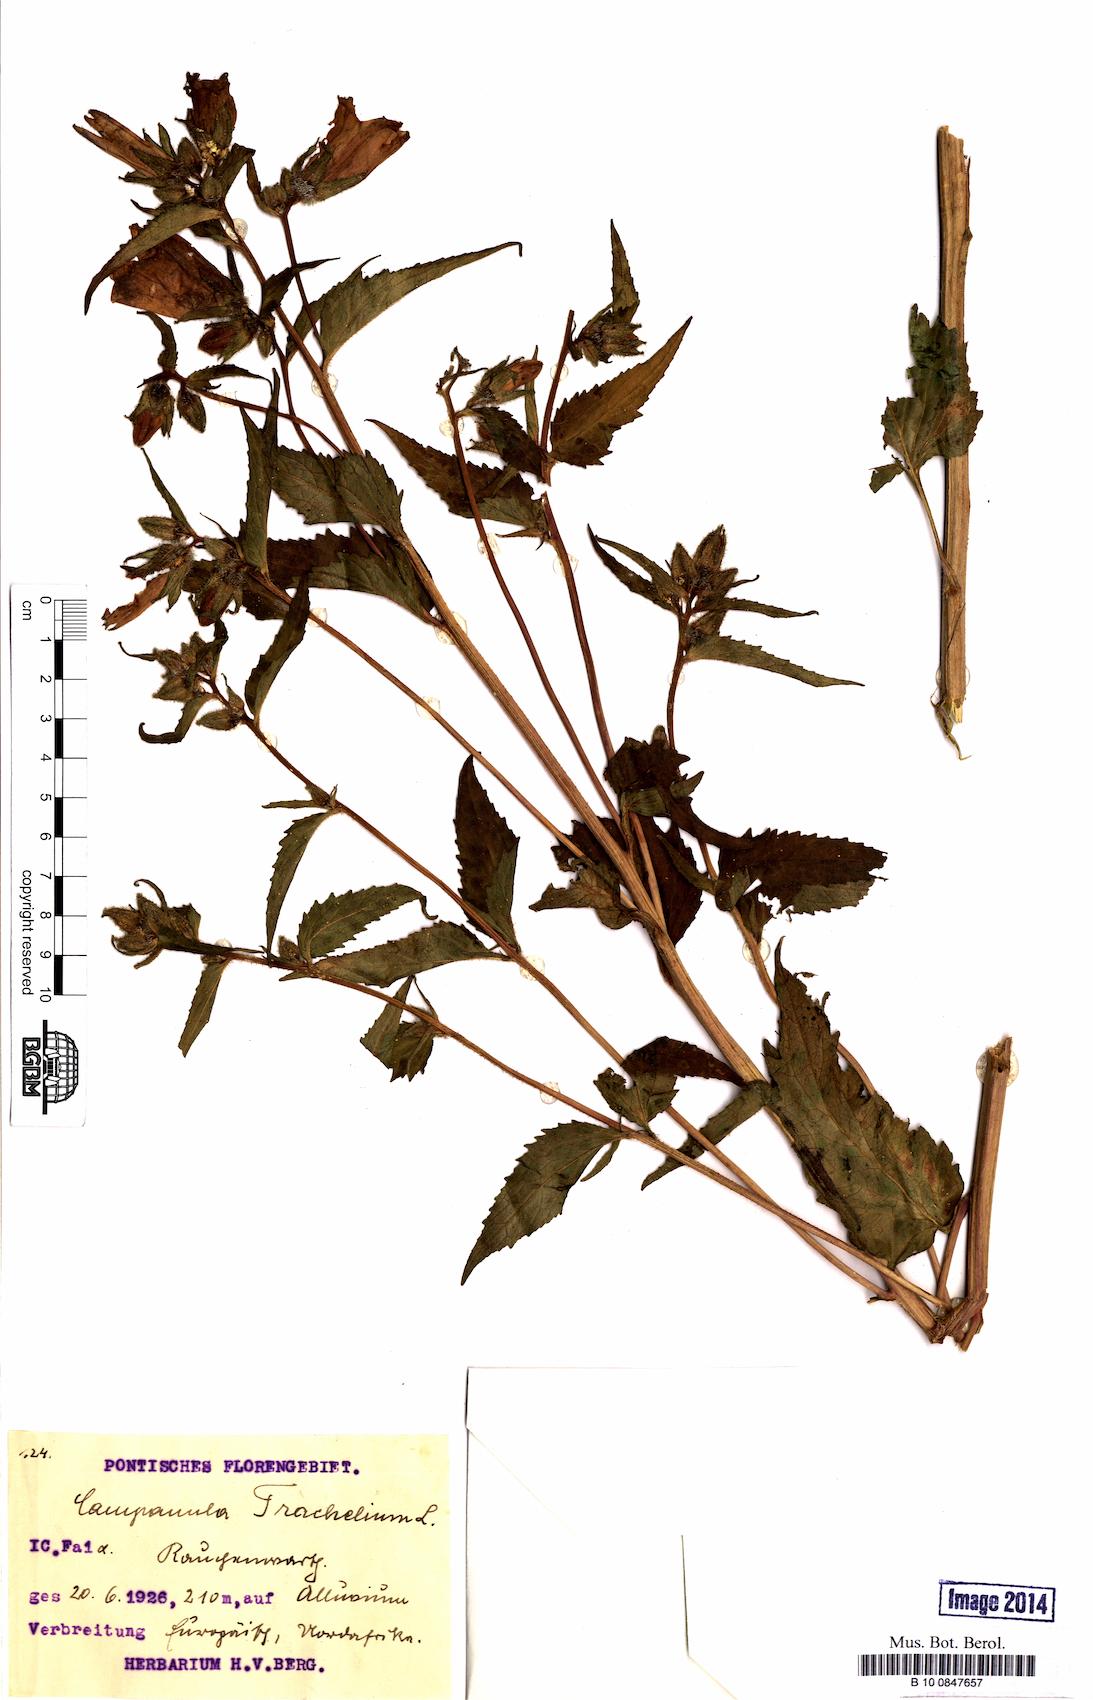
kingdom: Plantae
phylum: Tracheophyta
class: Magnoliopsida
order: Asterales
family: Campanulaceae
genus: Campanula
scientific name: Campanula trachelium
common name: Nettle-leaved bellflower
